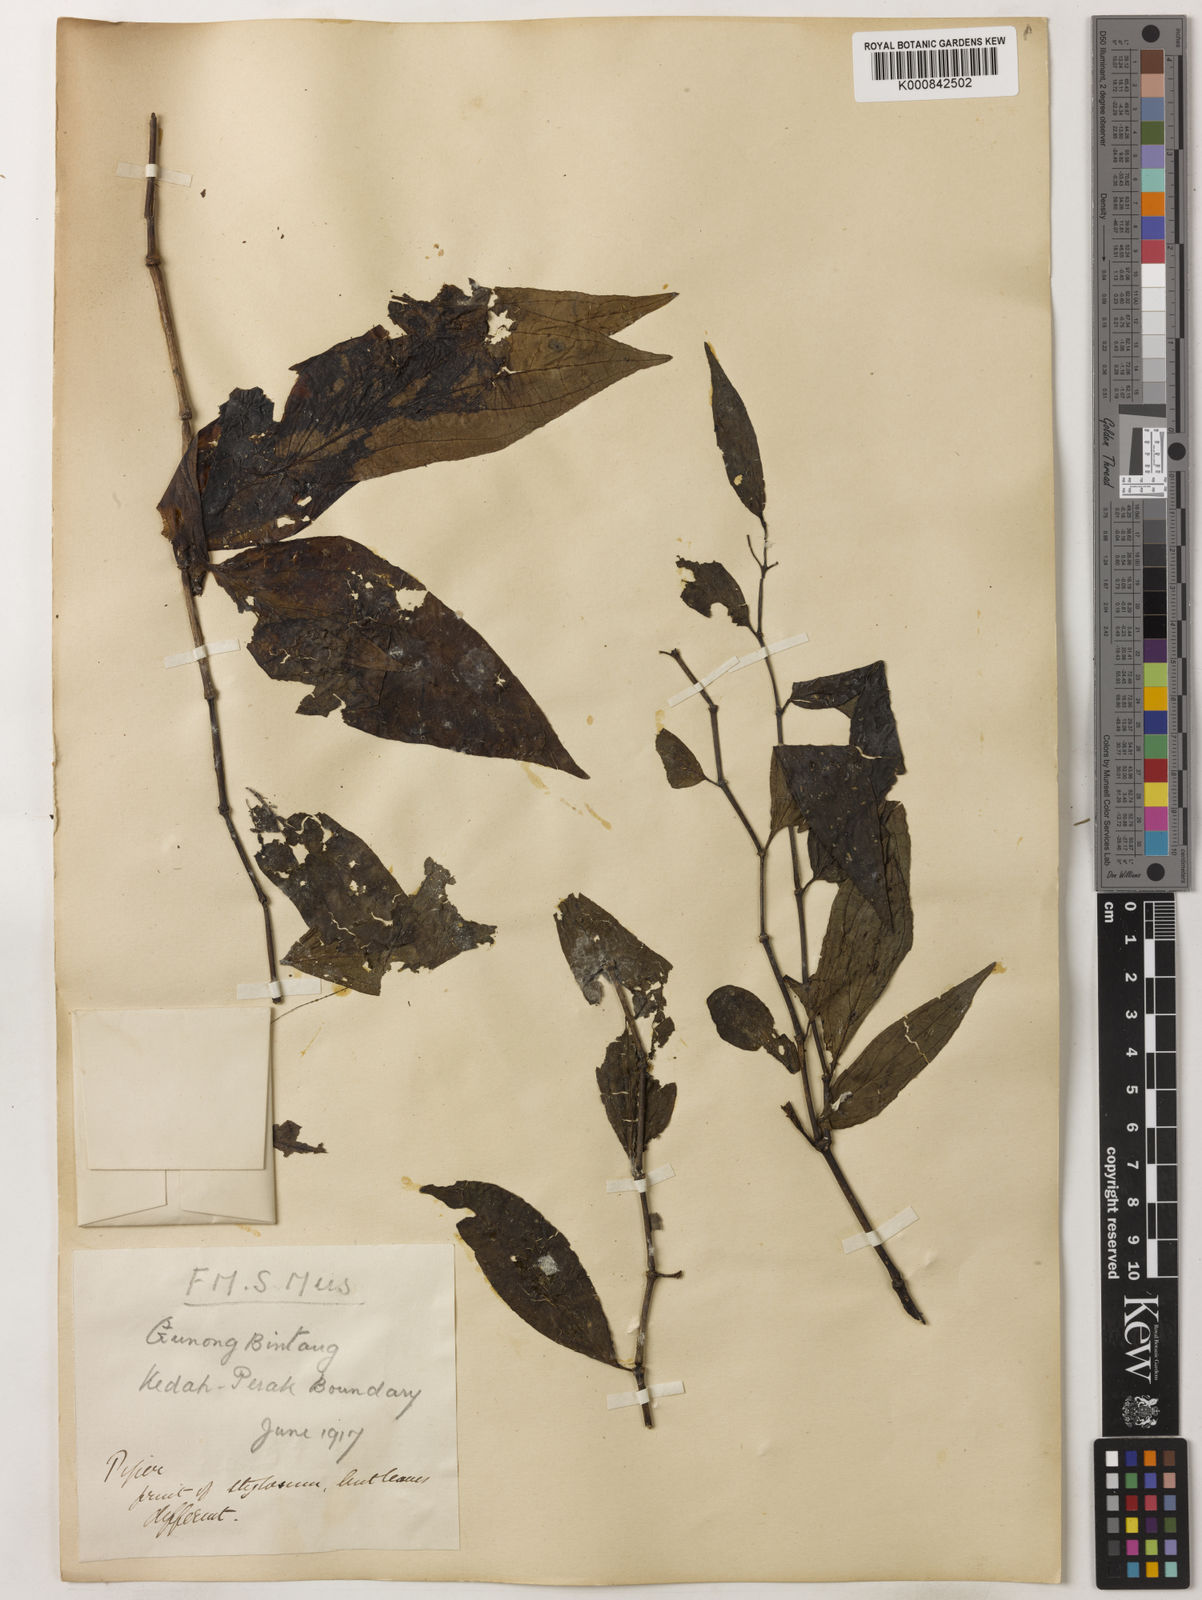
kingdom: Plantae
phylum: Tracheophyta
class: Magnoliopsida
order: Piperales
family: Piperaceae
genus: Piper
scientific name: Piper
